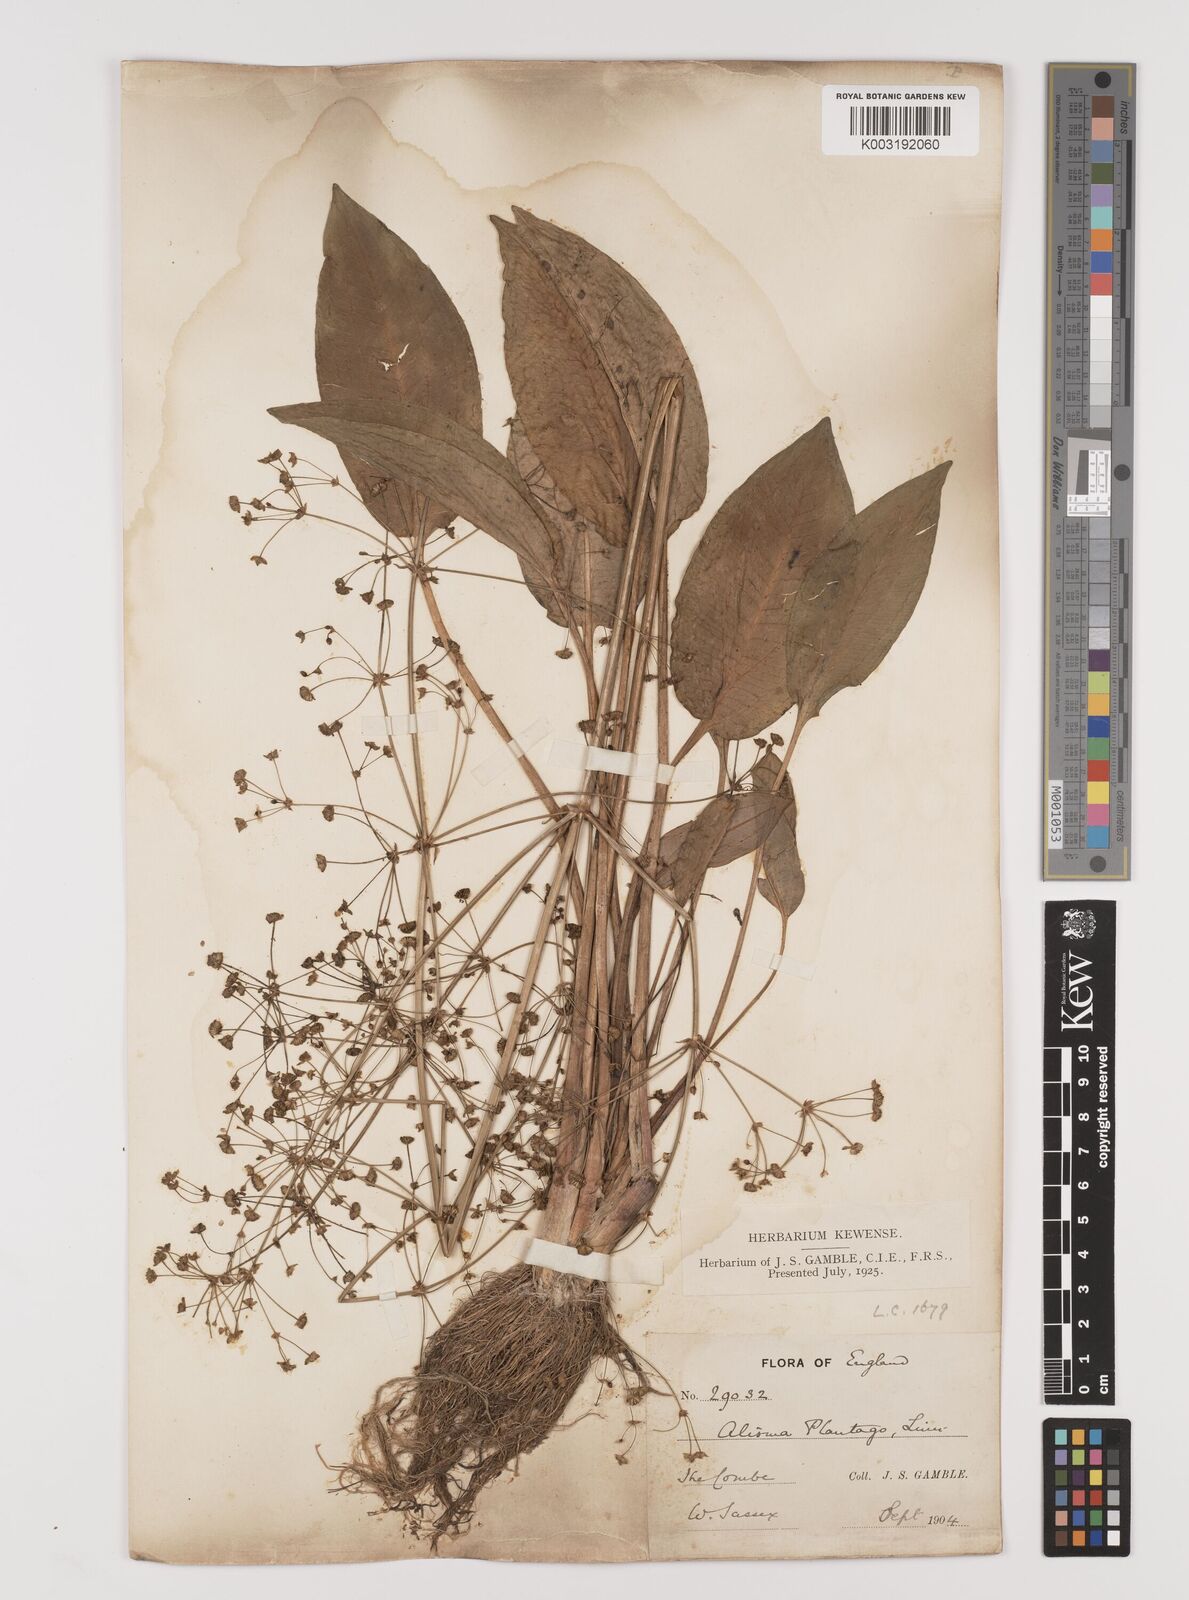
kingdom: Plantae
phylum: Tracheophyta
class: Liliopsida
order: Alismatales
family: Alismataceae
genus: Alisma
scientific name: Alisma plantago-aquatica
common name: Water-plantain
